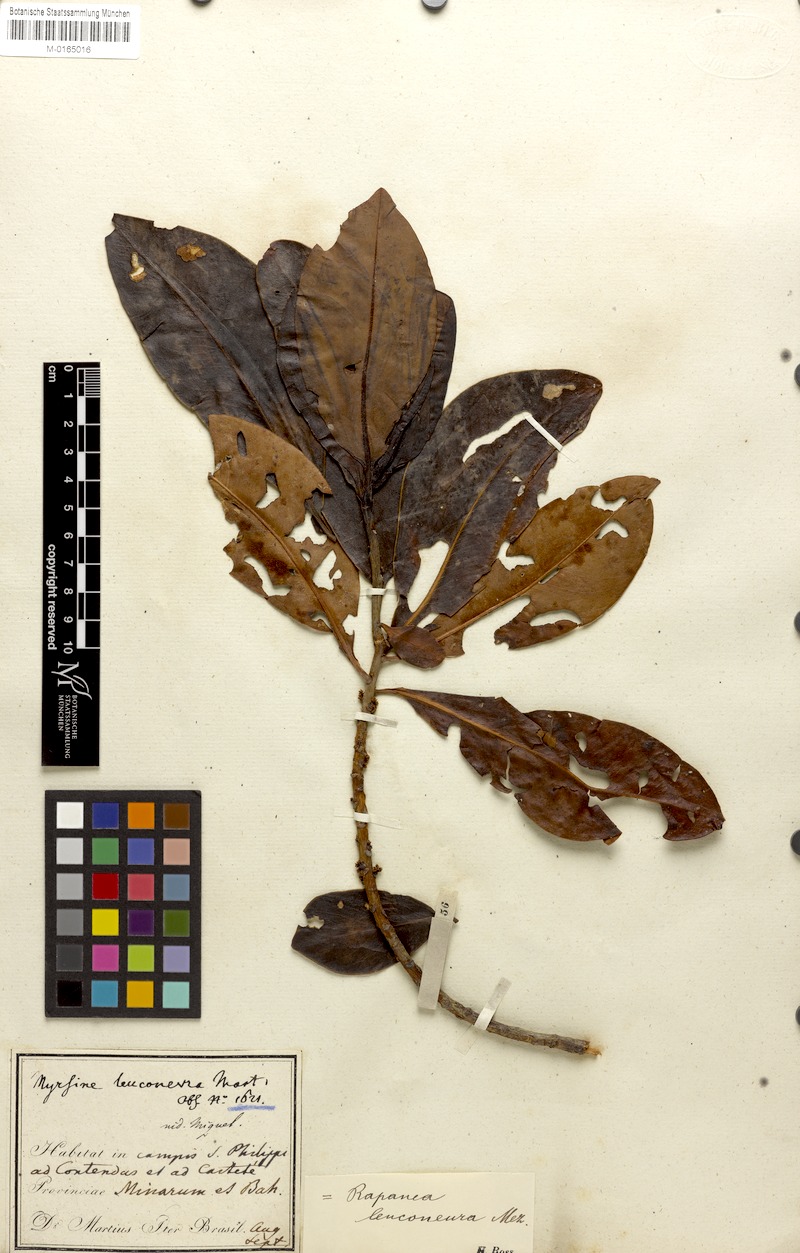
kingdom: Plantae
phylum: Tracheophyta
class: Magnoliopsida
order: Ericales
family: Primulaceae
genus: Myrsine
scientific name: Myrsine leuconeura
